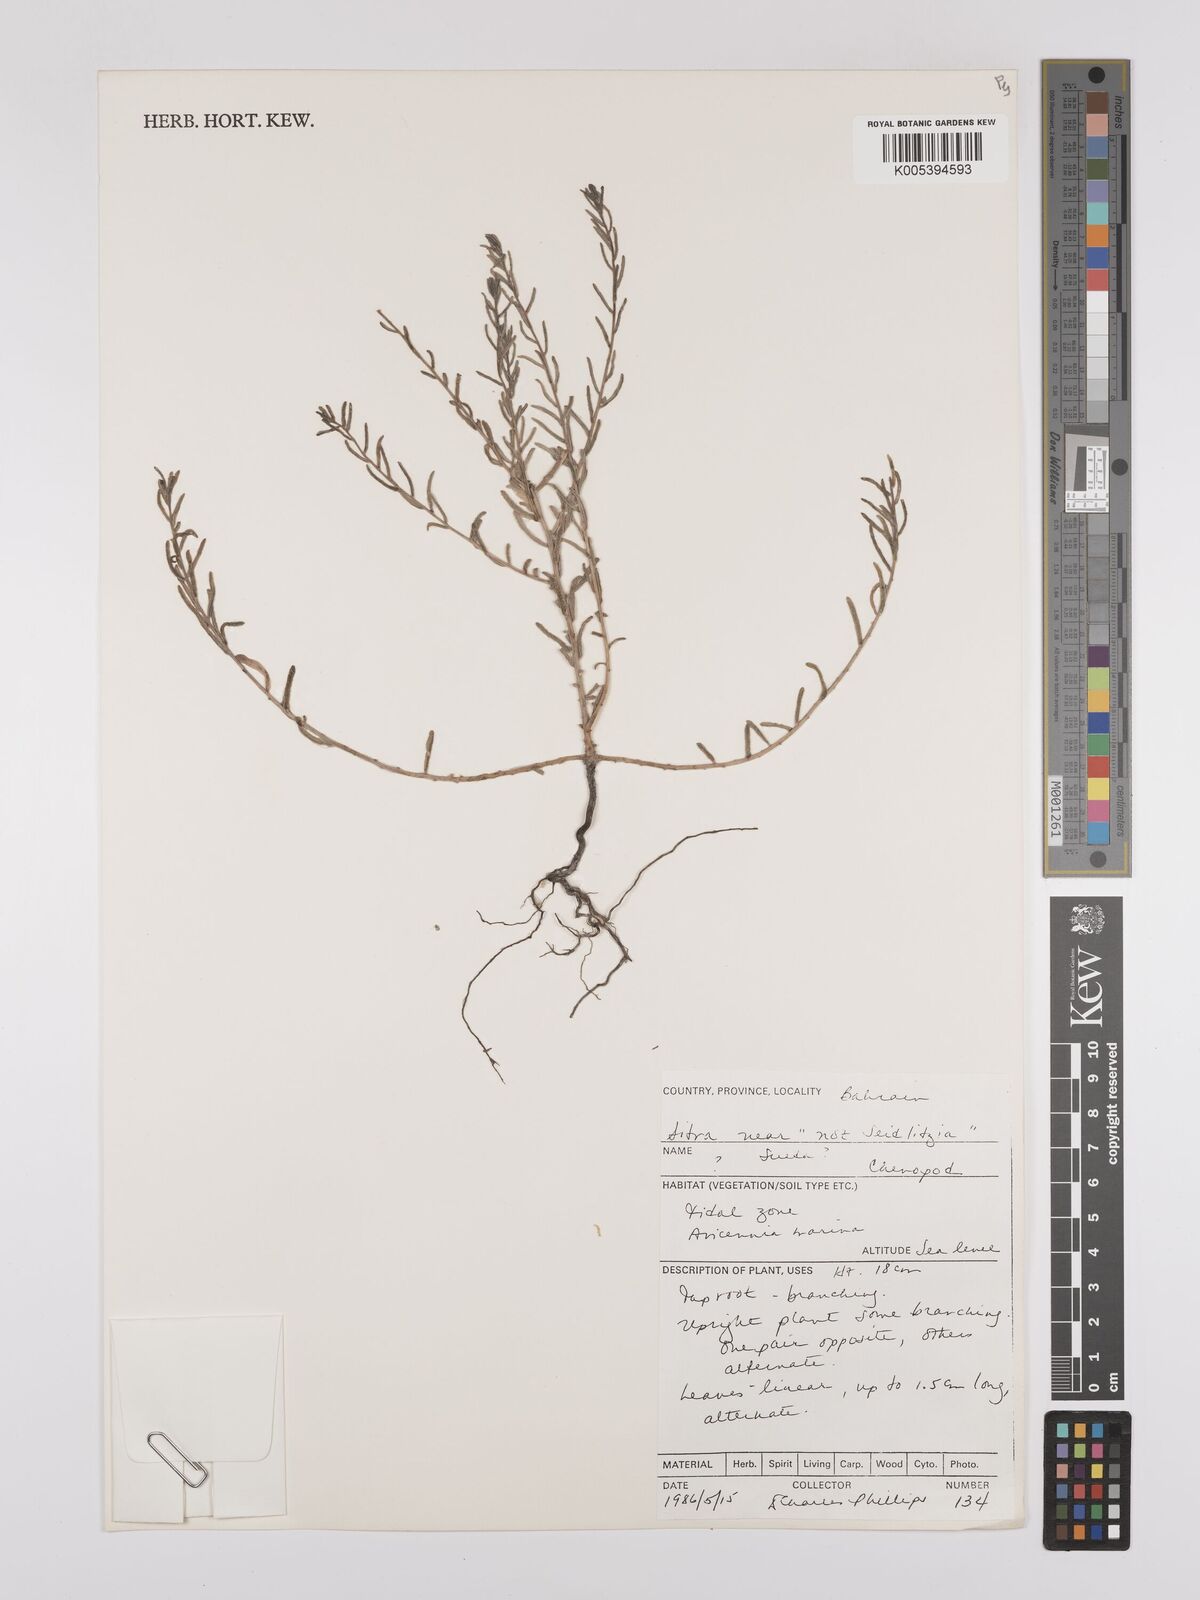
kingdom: Plantae
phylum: Tracheophyta
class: Magnoliopsida
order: Caryophyllales
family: Amaranthaceae
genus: Suaeda
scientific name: Suaeda
